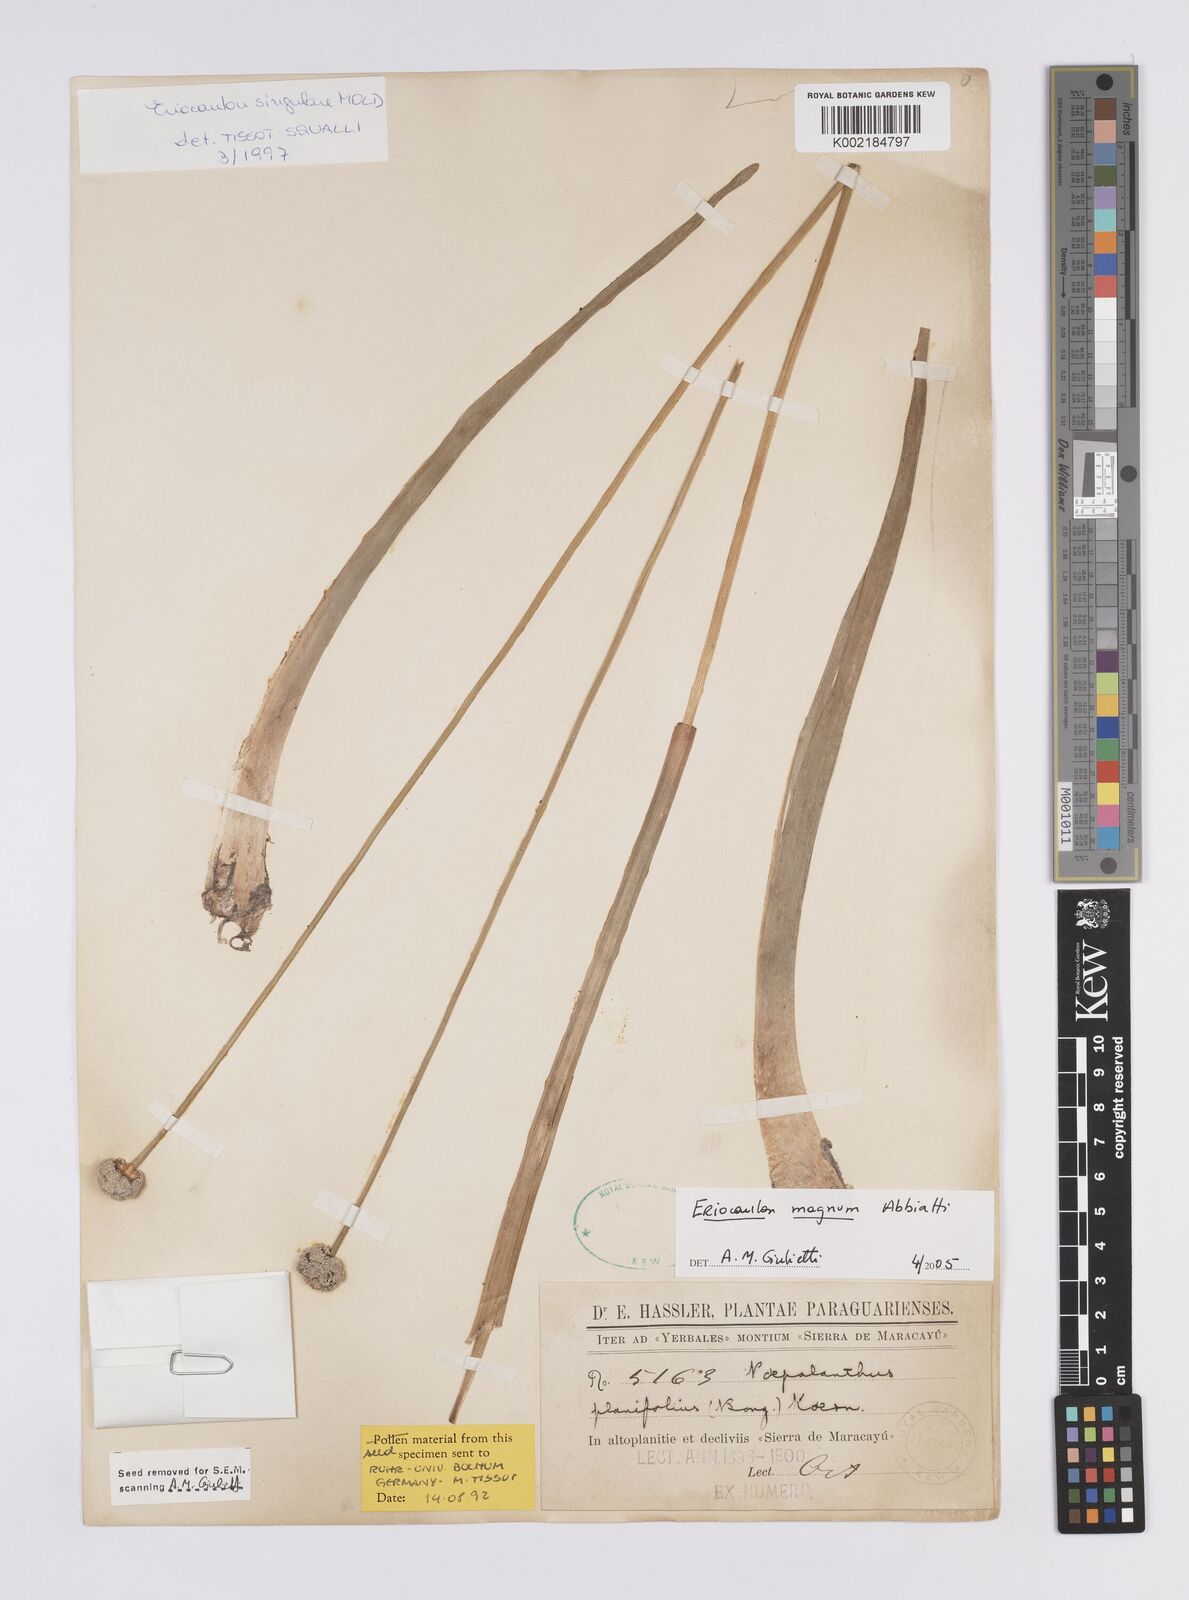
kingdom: Plantae
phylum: Tracheophyta
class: Liliopsida
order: Poales
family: Eriocaulaceae
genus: Eriocaulon
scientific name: Eriocaulon magnum
